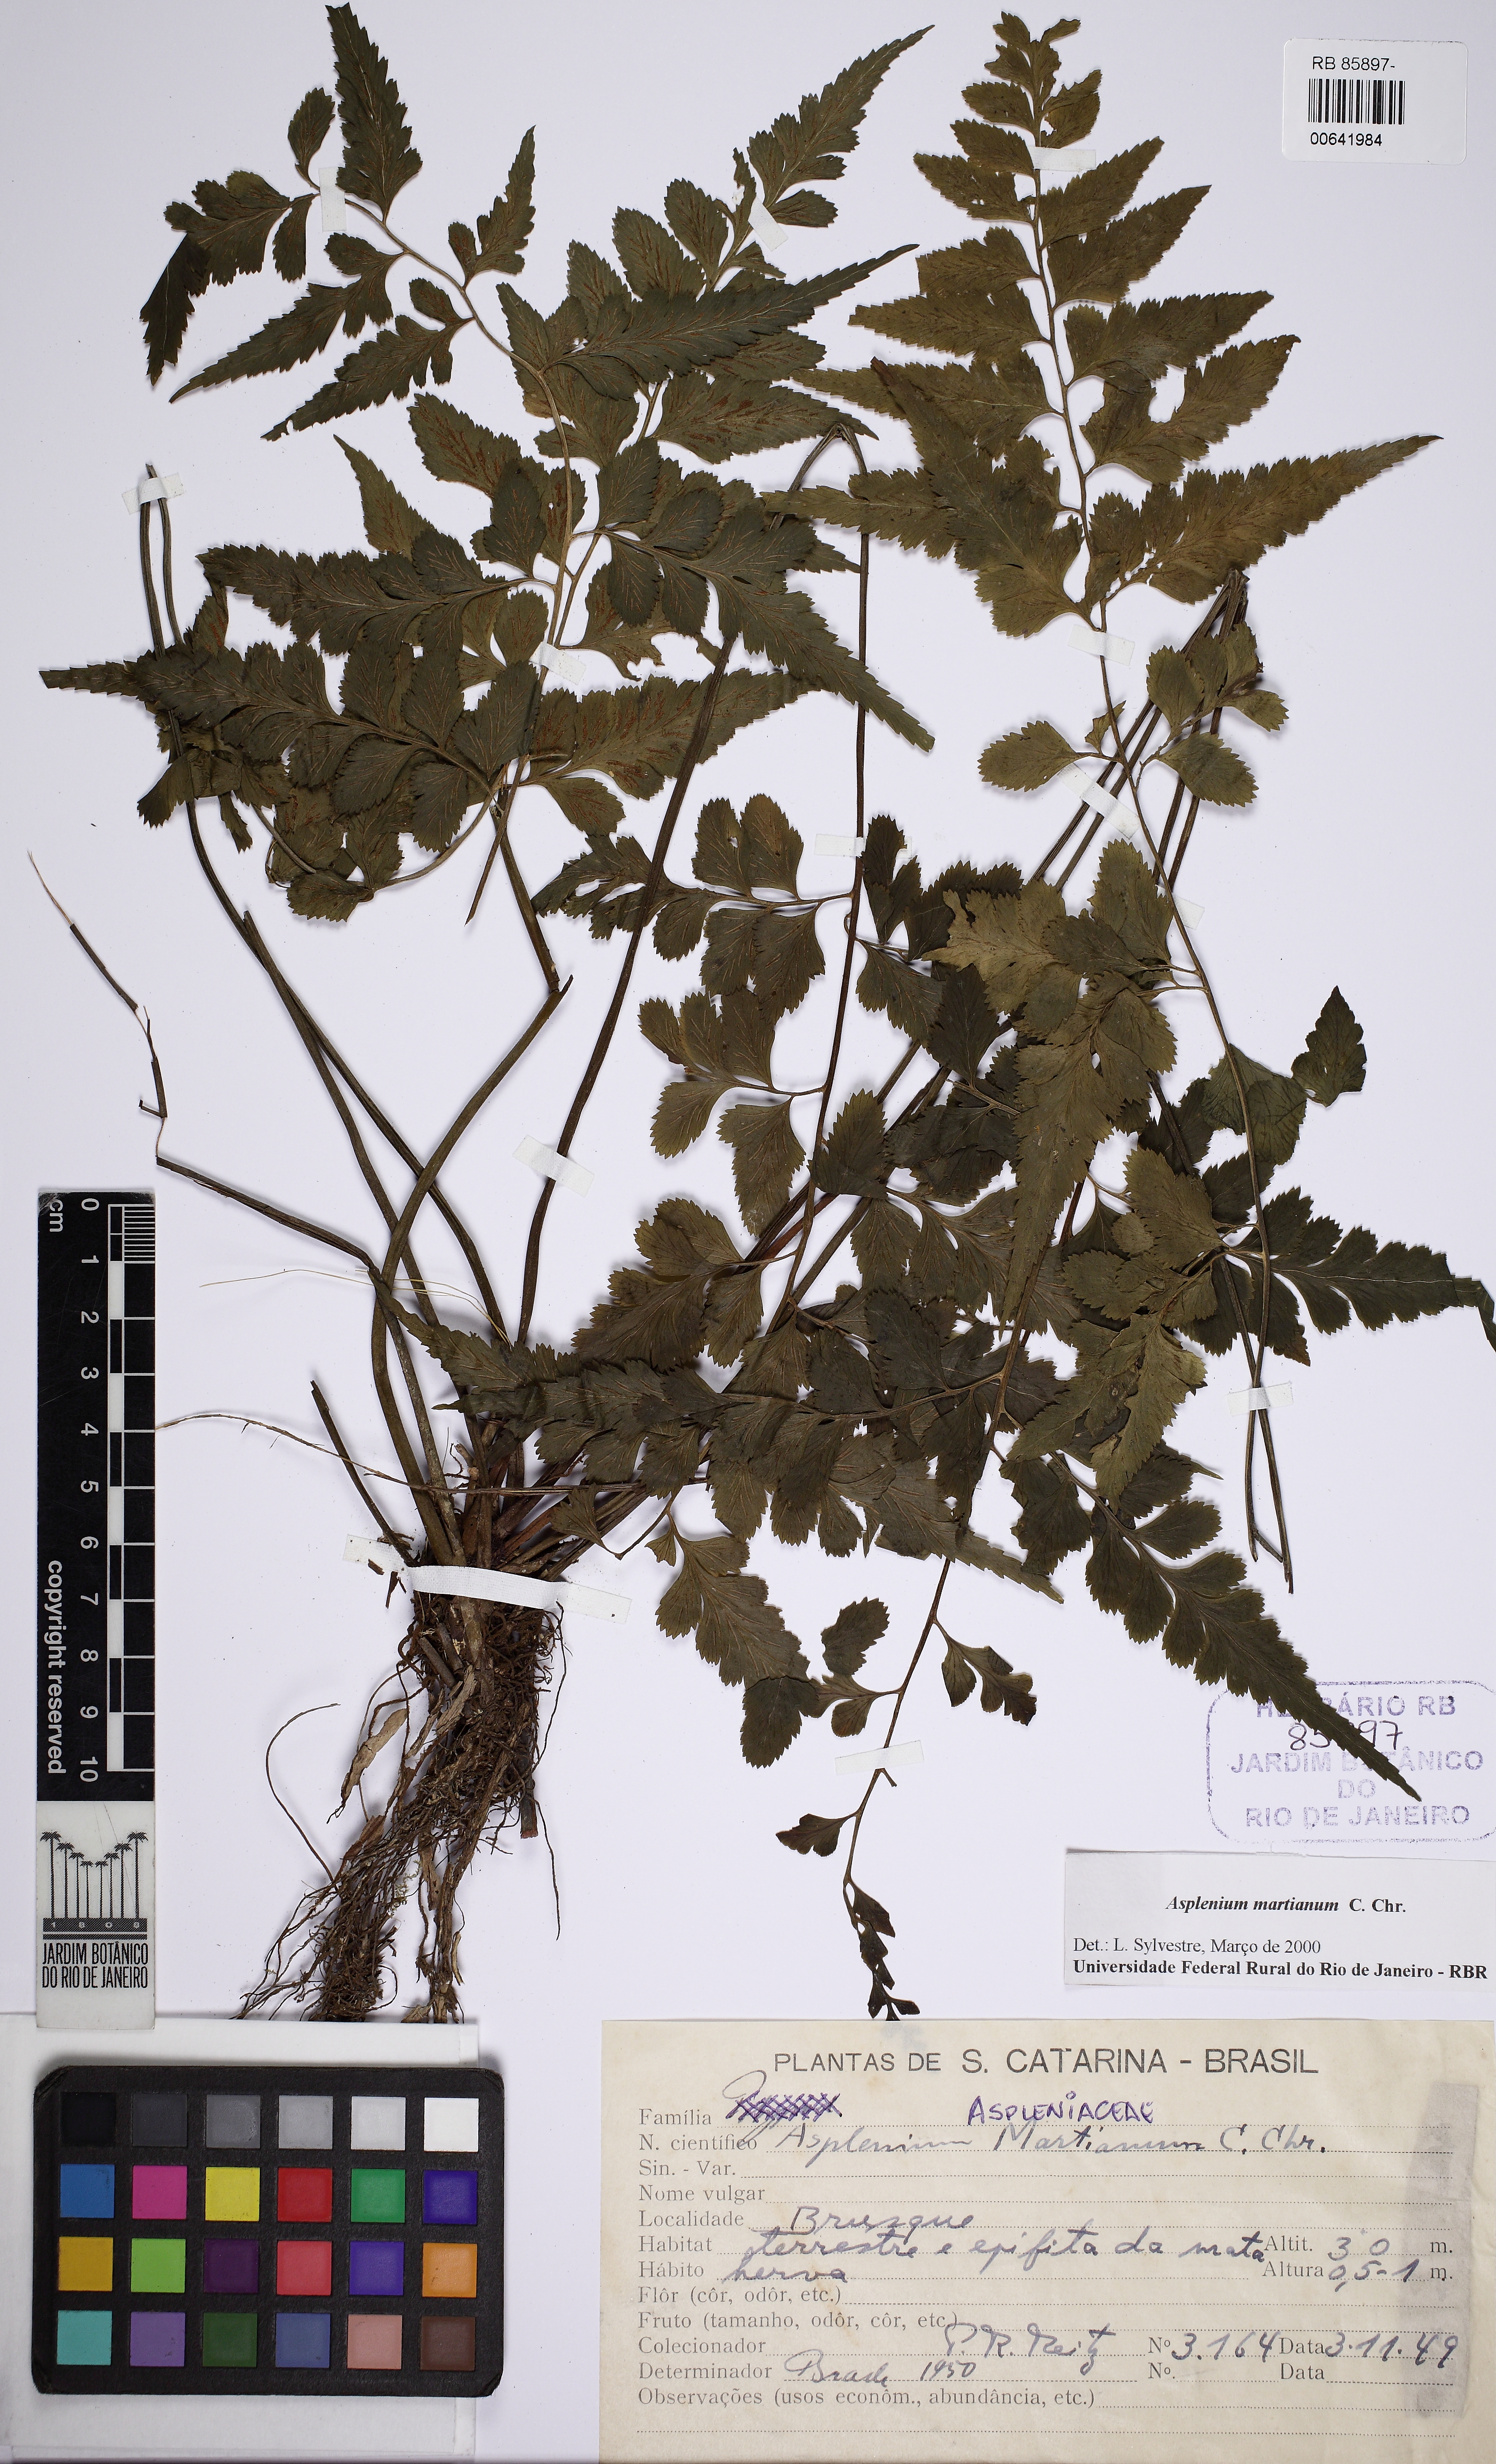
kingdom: Plantae
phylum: Tracheophyta
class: Polypodiopsida
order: Polypodiales
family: Aspleniaceae
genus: Asplenium
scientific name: Asplenium martianum
